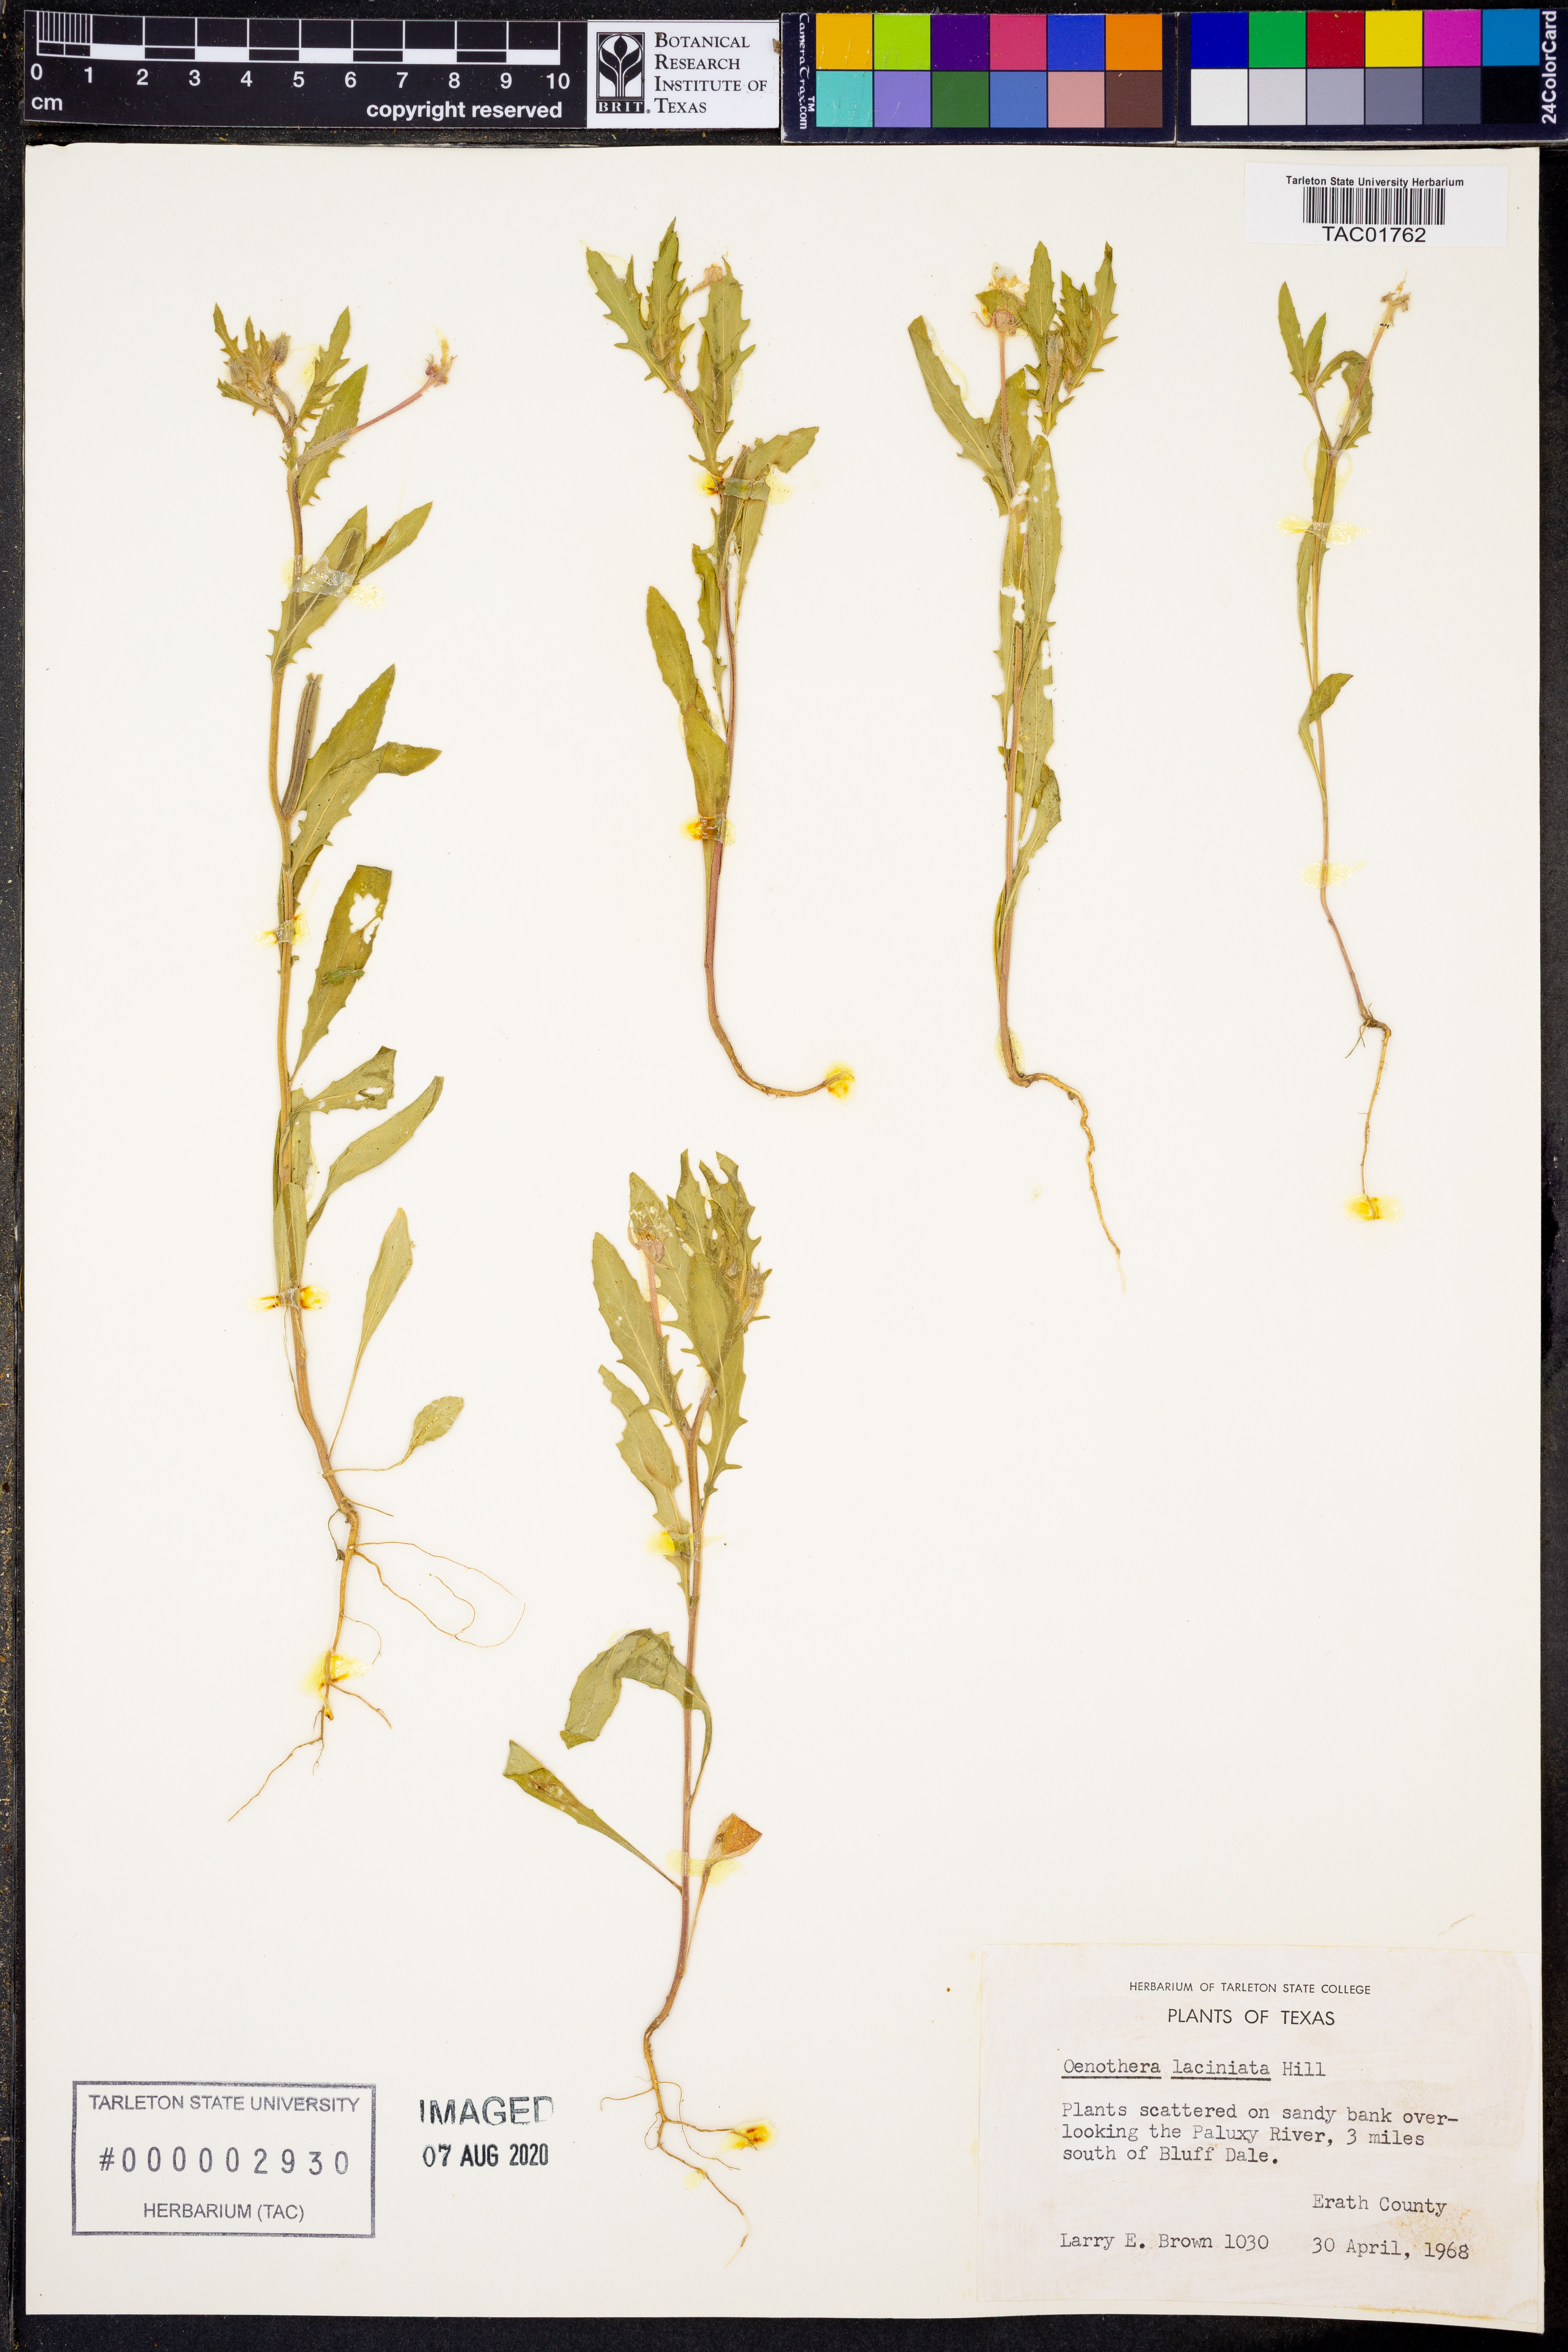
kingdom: Plantae
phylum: Tracheophyta
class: Magnoliopsida
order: Myrtales
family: Onagraceae
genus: Oenothera
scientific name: Oenothera laciniata
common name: Cut-leaved evening-primrose
